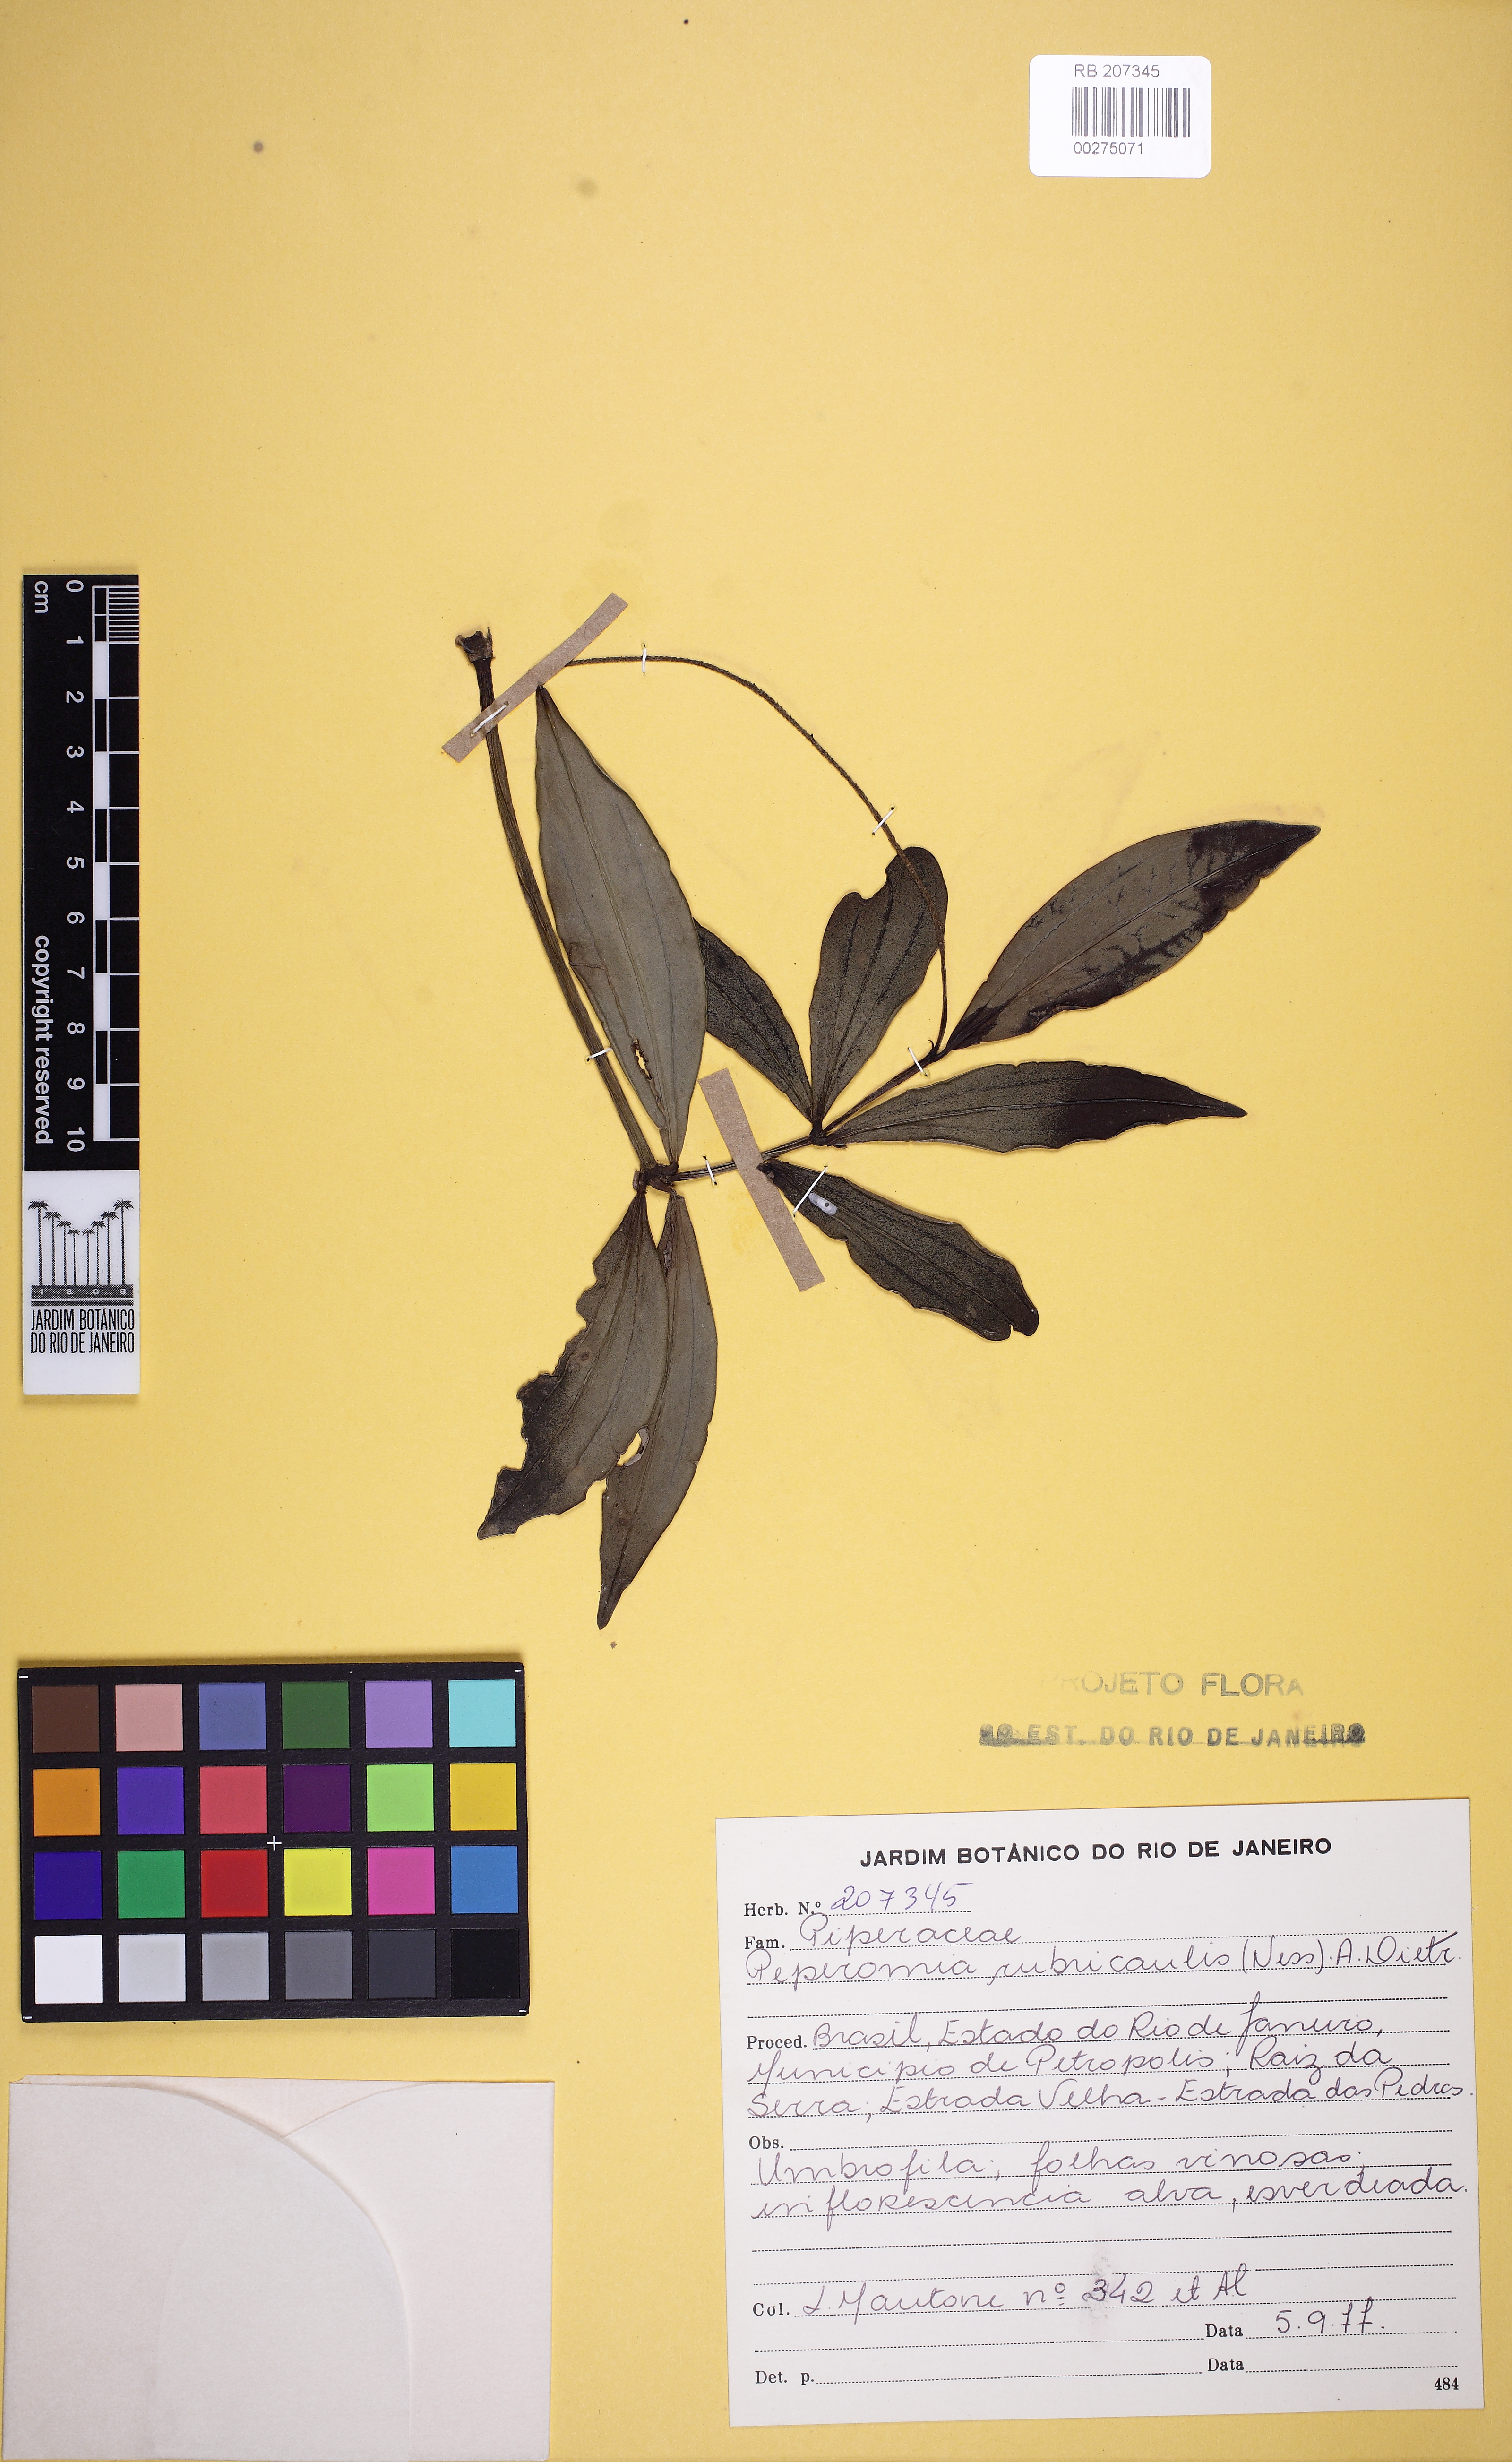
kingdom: Plantae
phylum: Tracheophyta
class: Magnoliopsida
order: Piperales
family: Piperaceae
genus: Peperomia
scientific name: Peperomia rubricaulis
